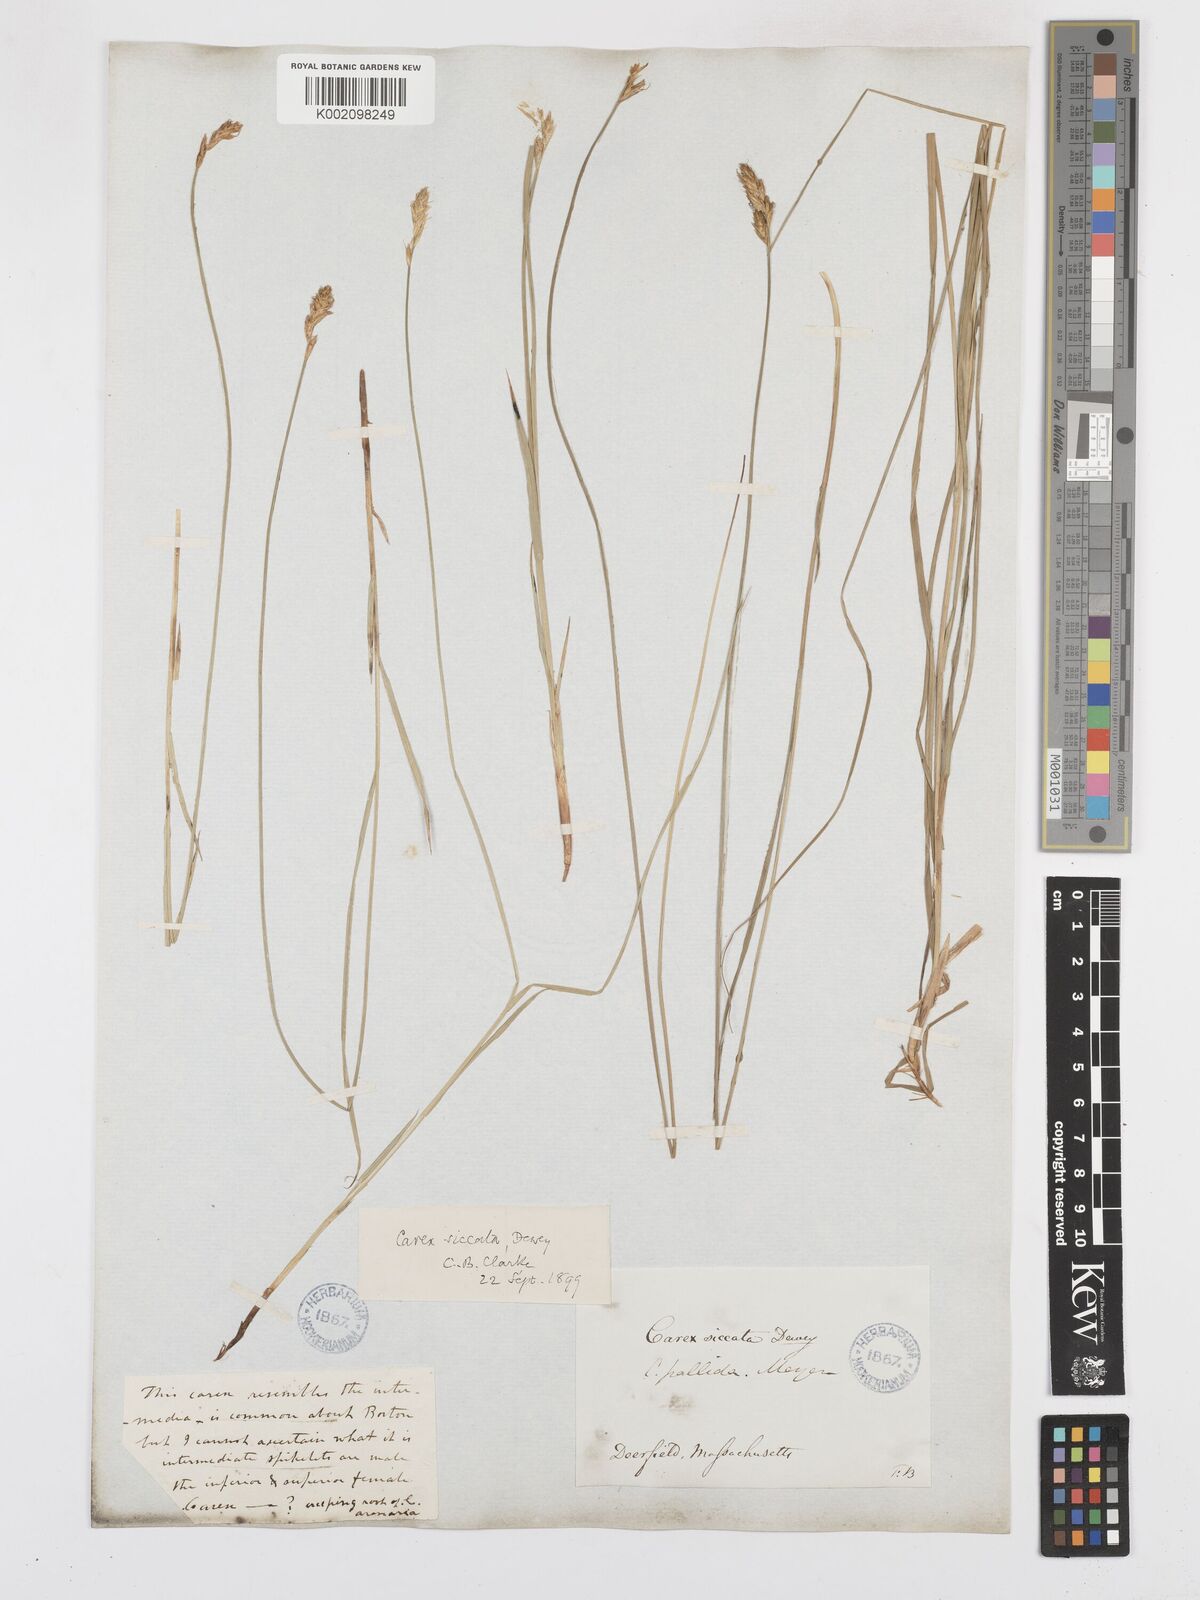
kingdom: Plantae
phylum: Tracheophyta
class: Liliopsida
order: Poales
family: Cyperaceae
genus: Carex
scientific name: Carex foenea
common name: Bronze sedge
